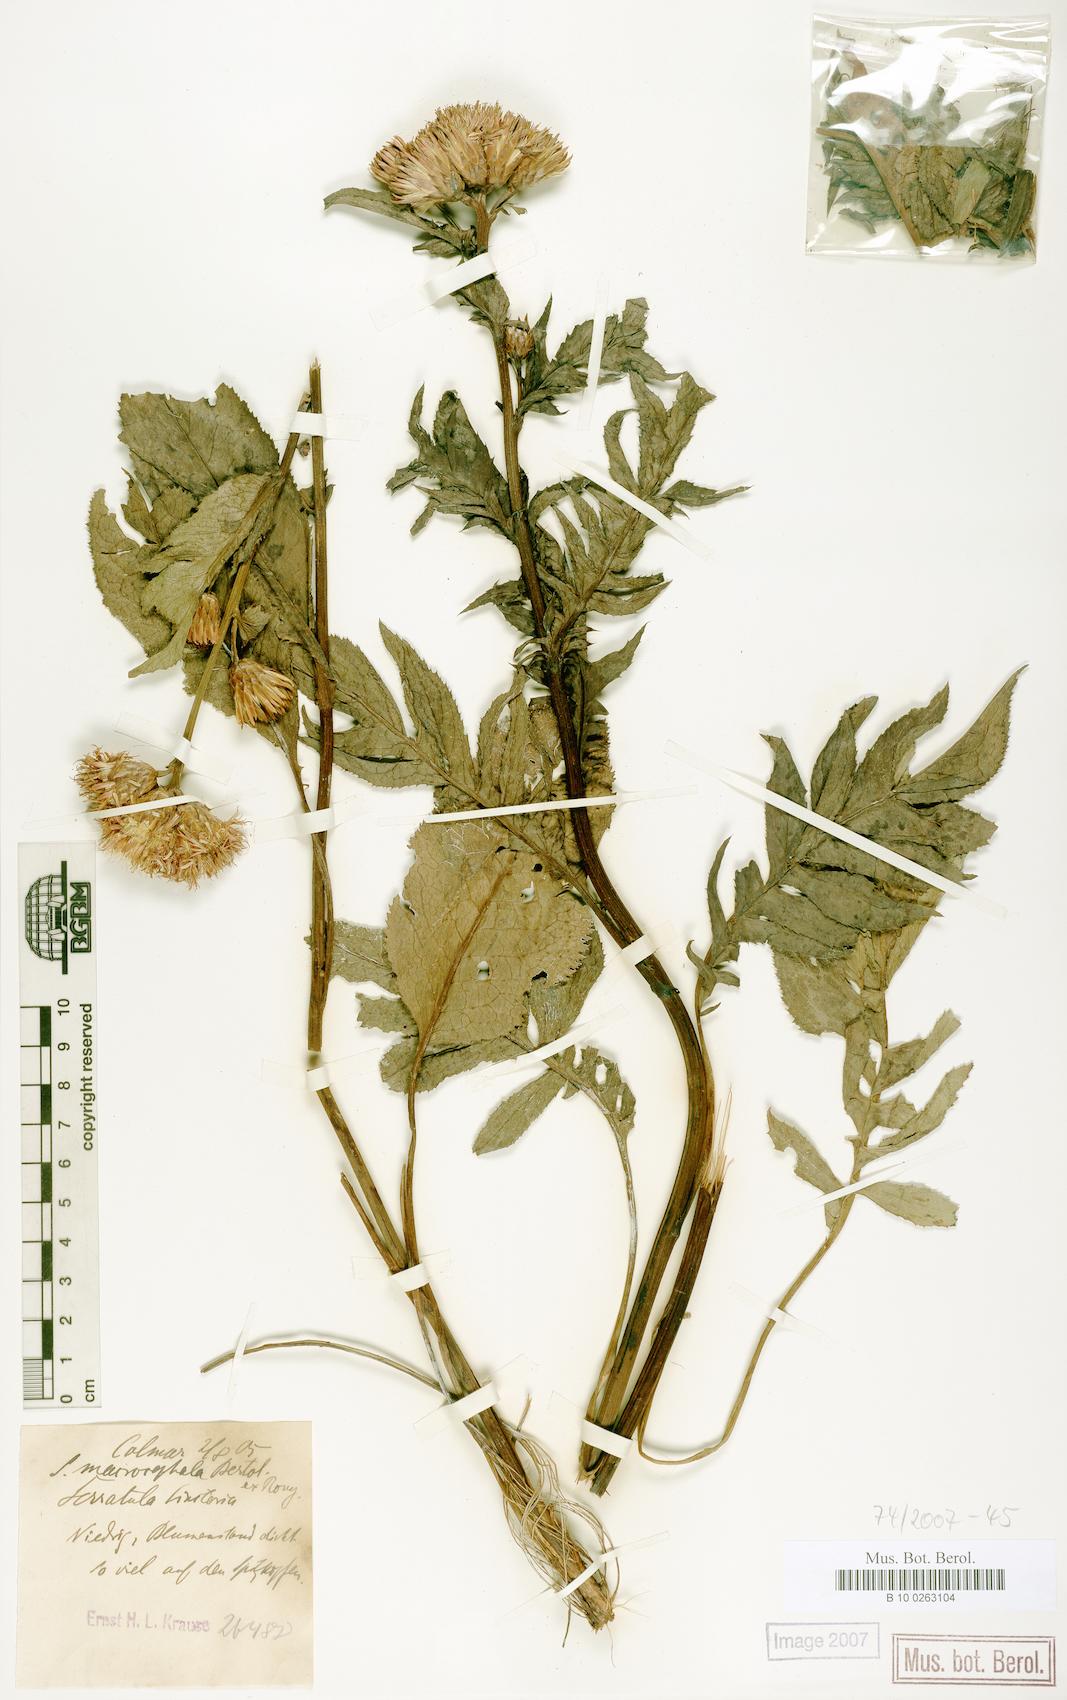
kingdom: Plantae
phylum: Tracheophyta
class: Magnoliopsida
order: Asterales
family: Asteraceae
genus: Serratula
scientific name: Serratula tinctoria
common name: Saw-wort
